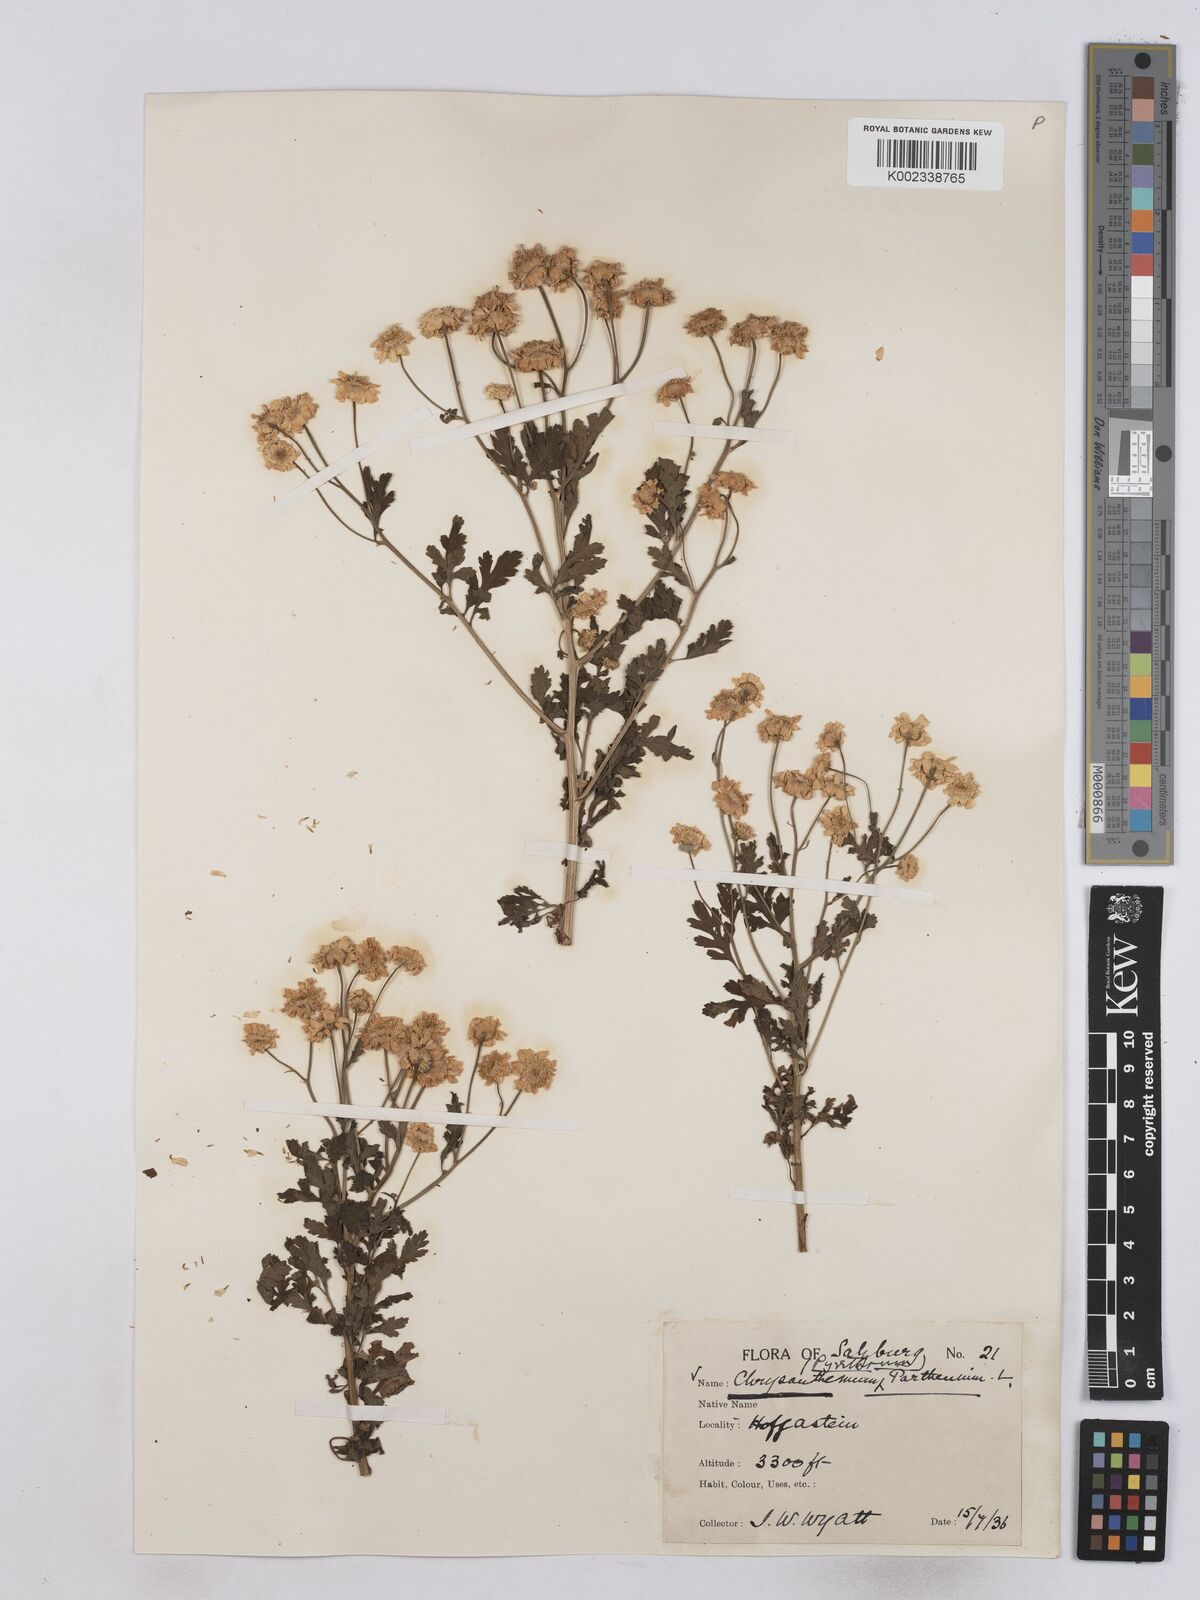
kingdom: Plantae
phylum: Tracheophyta
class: Magnoliopsida
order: Asterales
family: Asteraceae
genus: Tanacetum
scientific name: Tanacetum parthenium
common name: Feverfew
